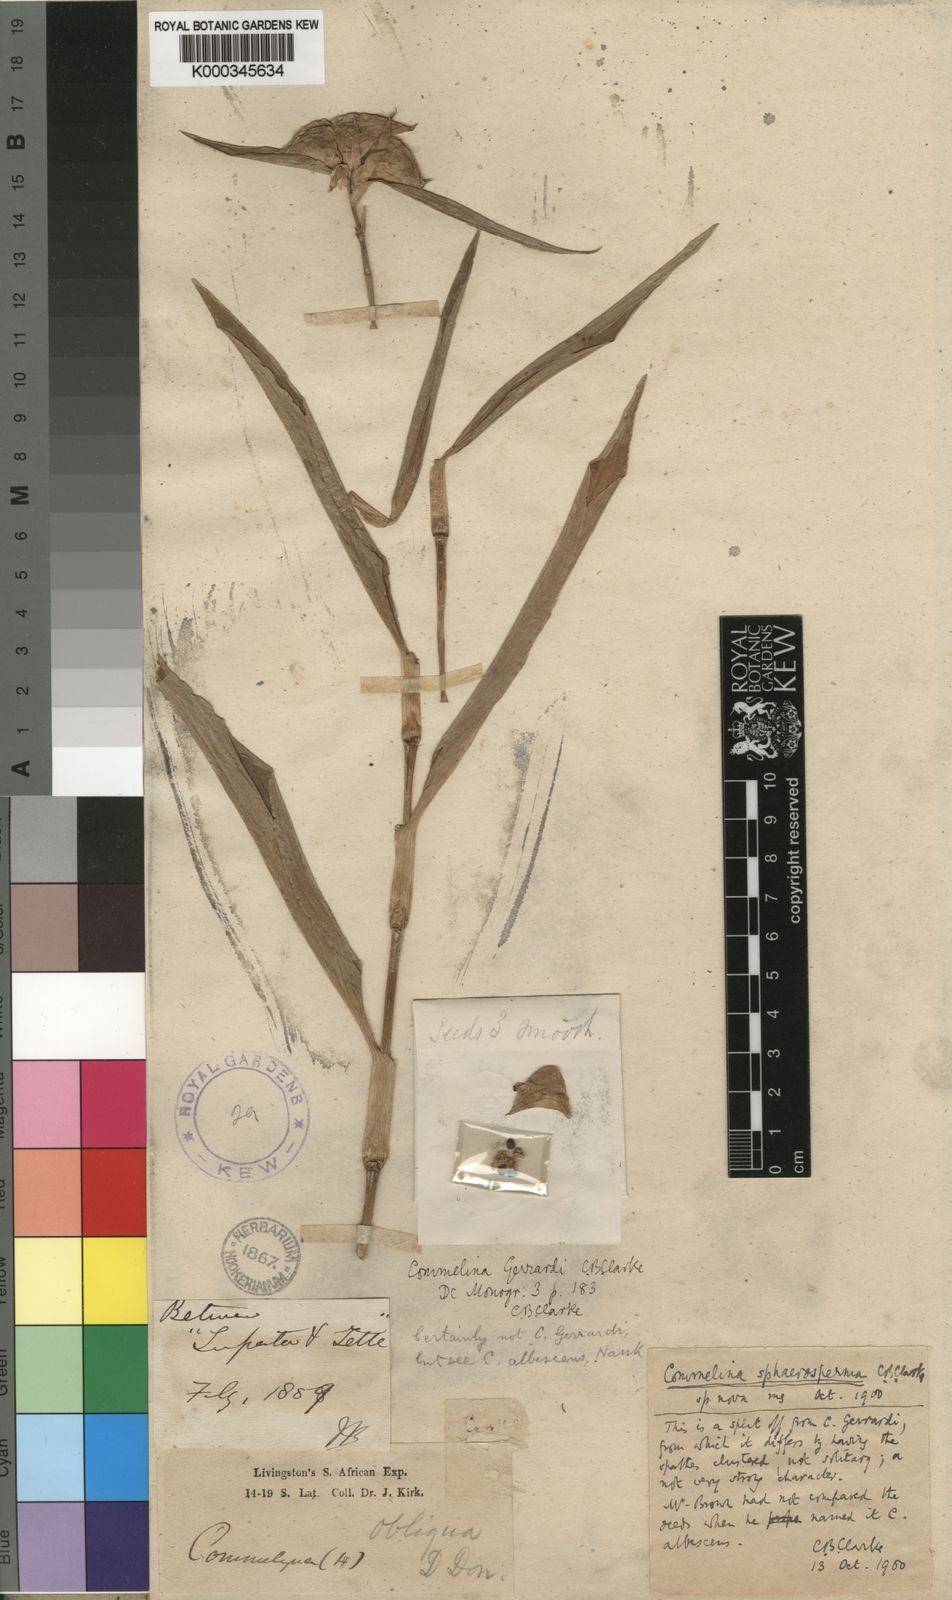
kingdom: Plantae
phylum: Tracheophyta
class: Liliopsida
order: Commelinales
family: Commelinaceae
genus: Commelina
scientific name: Commelina erecta
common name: Blousel blommetjie
